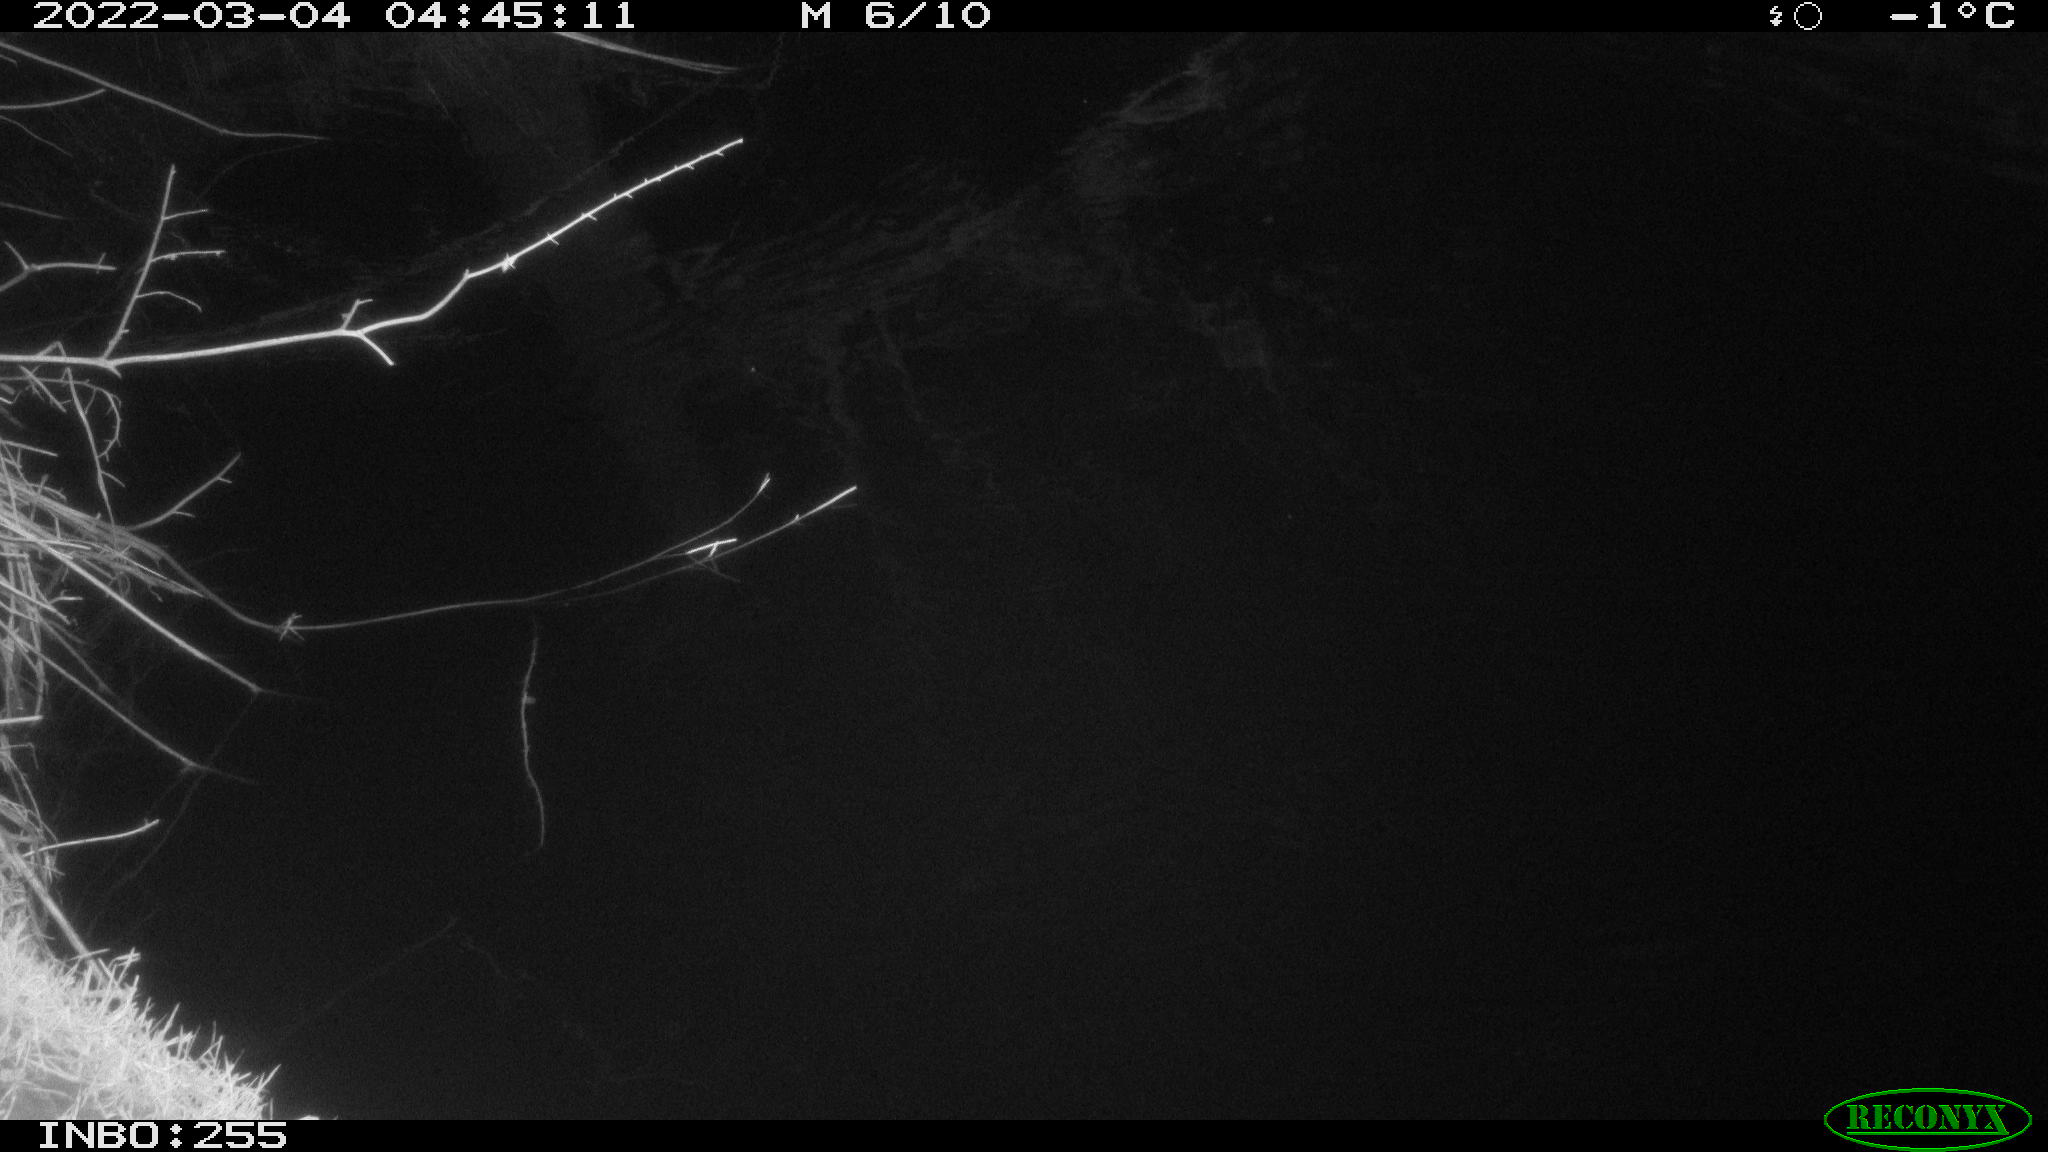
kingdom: Animalia
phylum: Chordata
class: Aves
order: Anseriformes
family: Anatidae
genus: Anas
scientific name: Anas platyrhynchos
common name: Mallard
